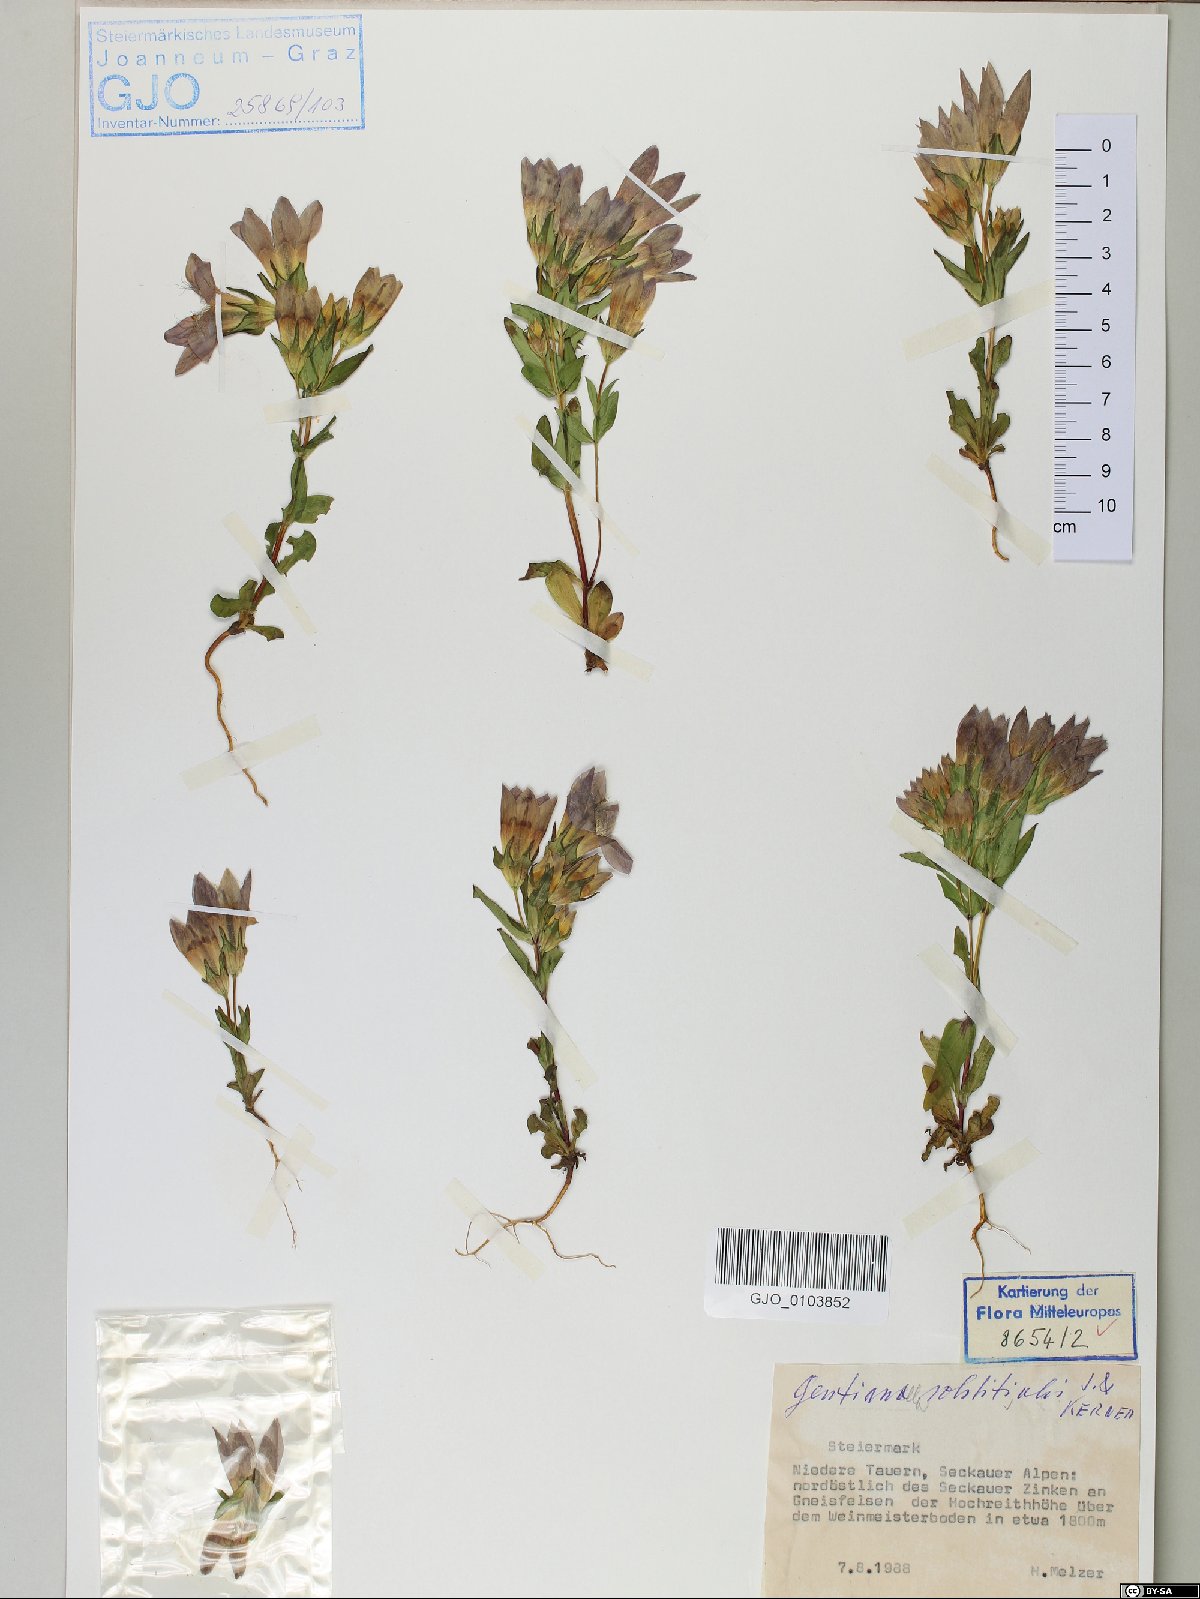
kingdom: Plantae
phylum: Tracheophyta
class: Magnoliopsida
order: Gentianales
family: Gentianaceae
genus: Gentianella
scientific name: Gentianella germanica
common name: Chiltern-gentian
